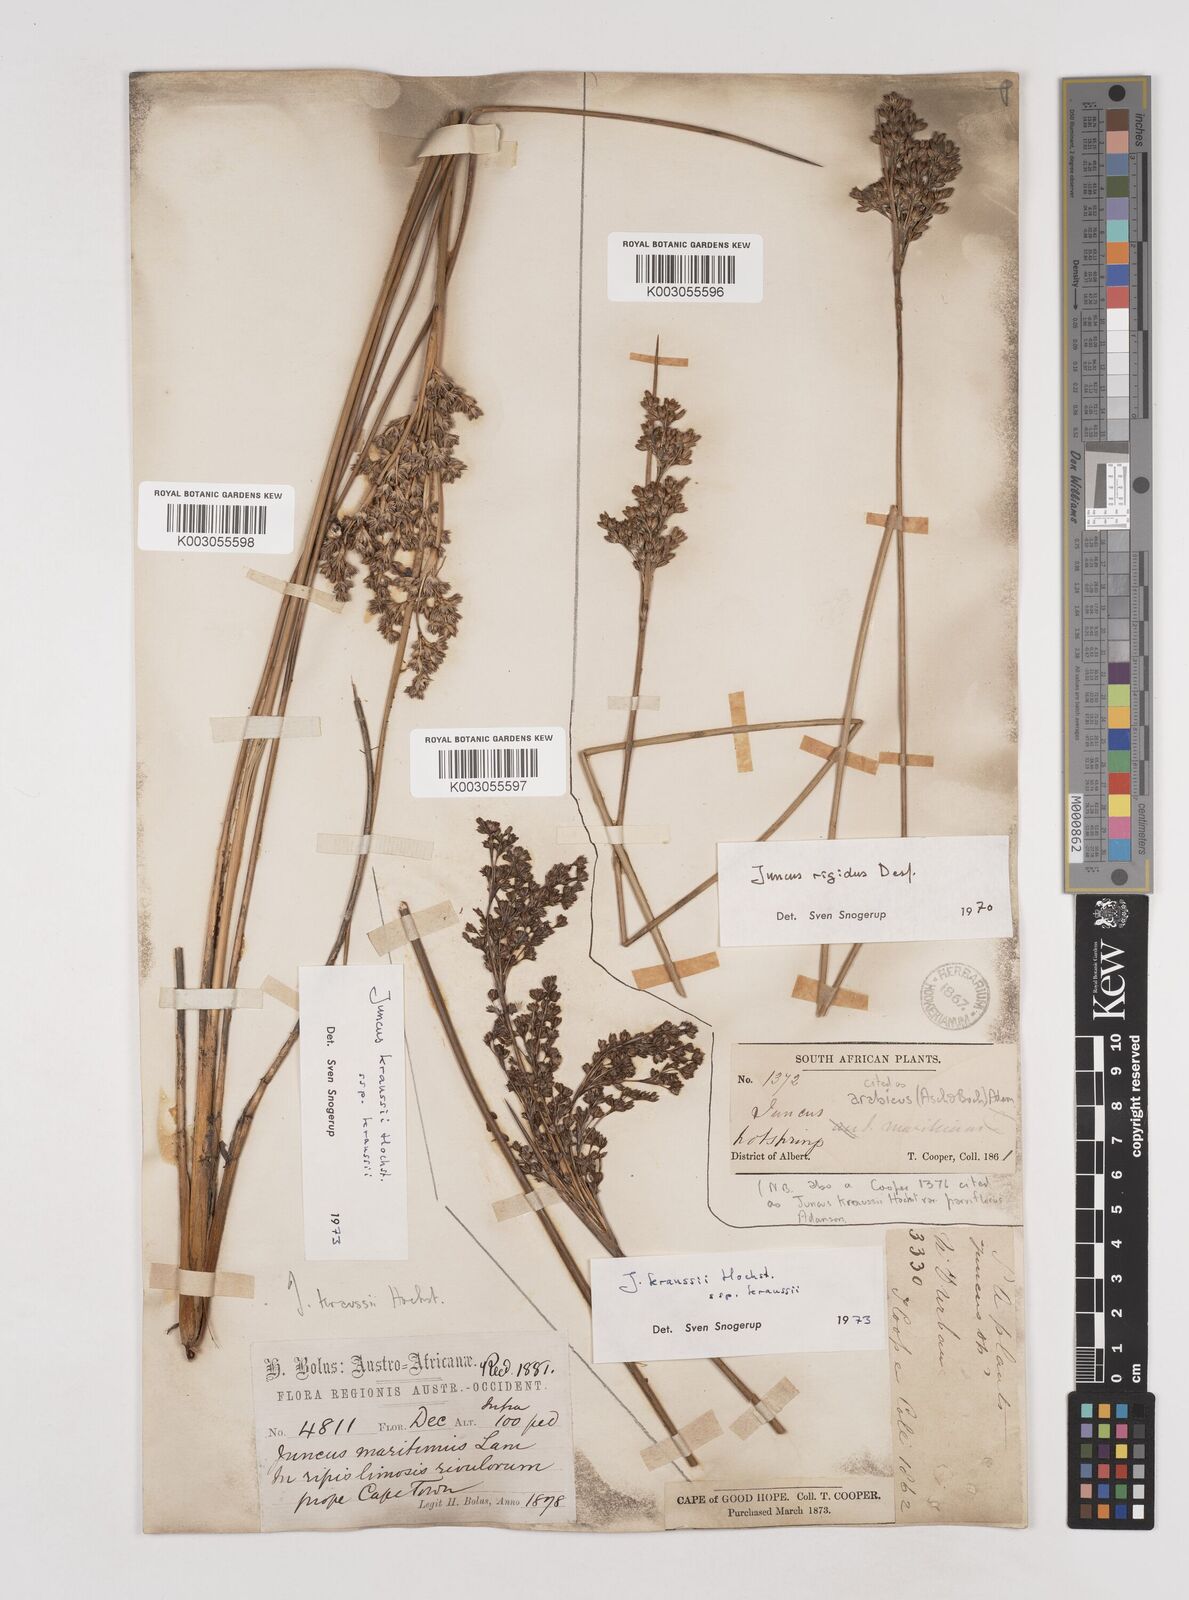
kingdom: Plantae
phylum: Tracheophyta
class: Liliopsida
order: Poales
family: Juncaceae
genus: Juncus
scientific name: Juncus kraussii
